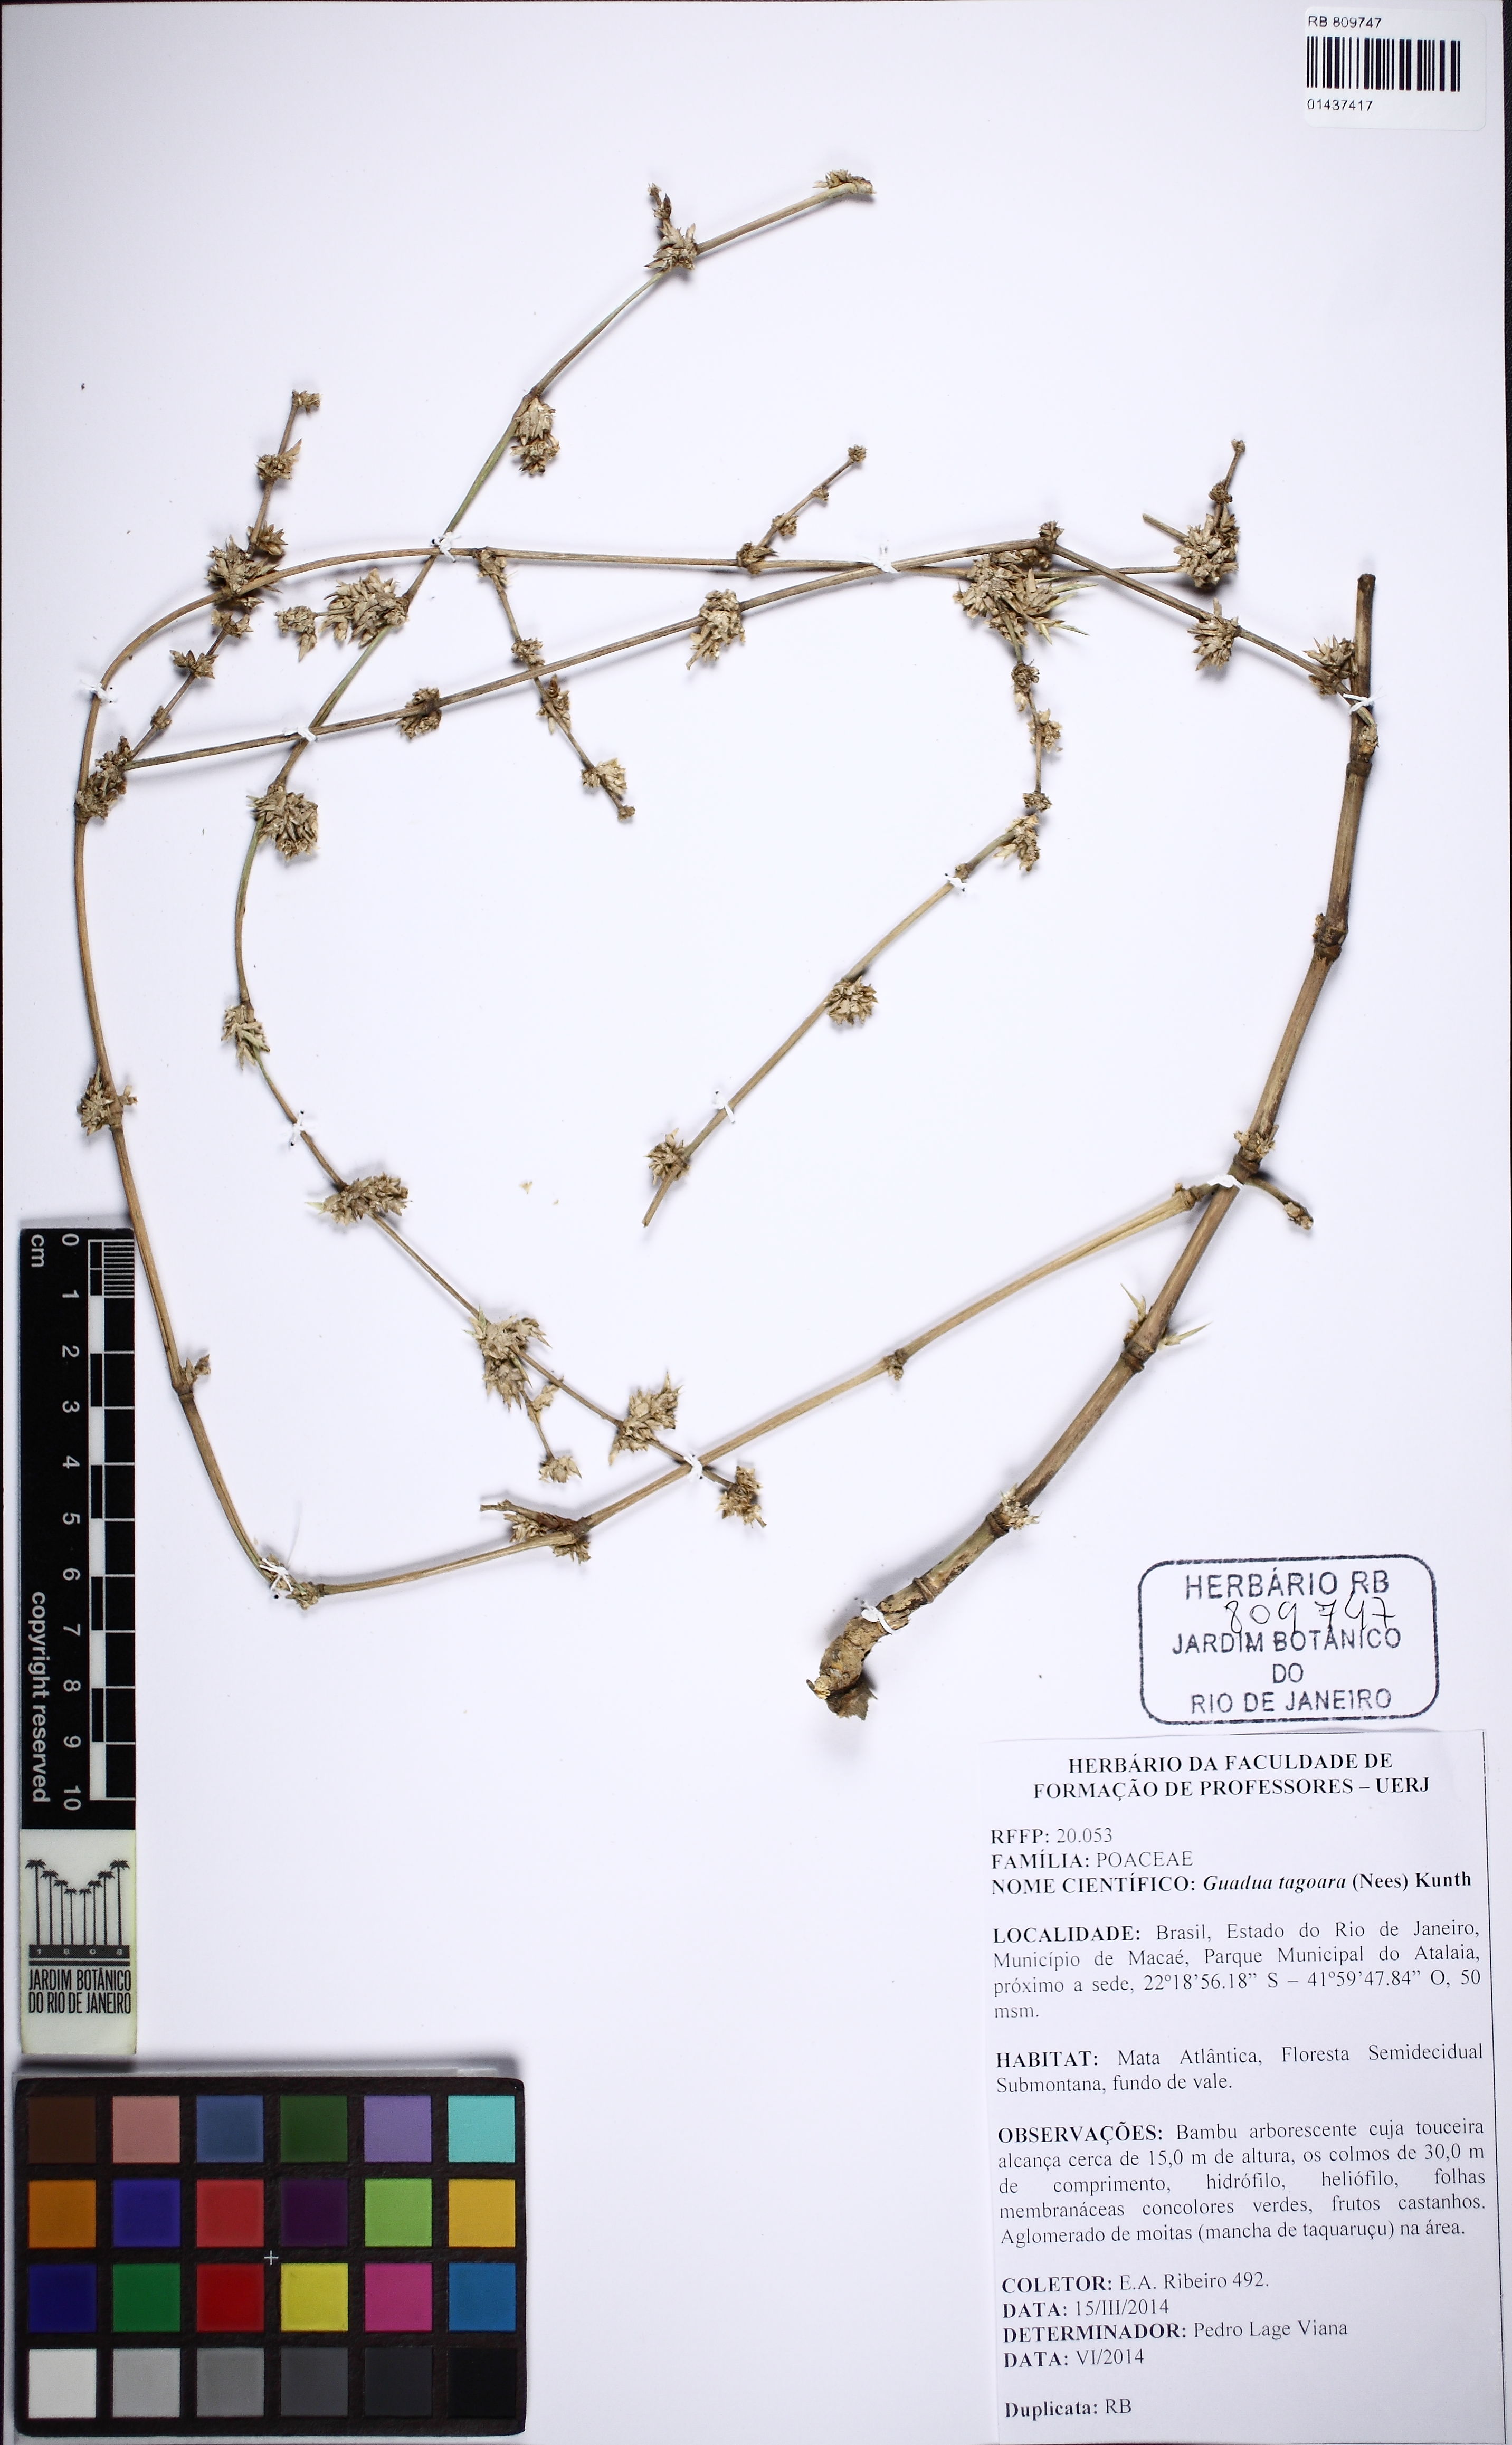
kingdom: Plantae
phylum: Tracheophyta
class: Liliopsida
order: Poales
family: Poaceae
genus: Guadua
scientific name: Guadua tagoara
